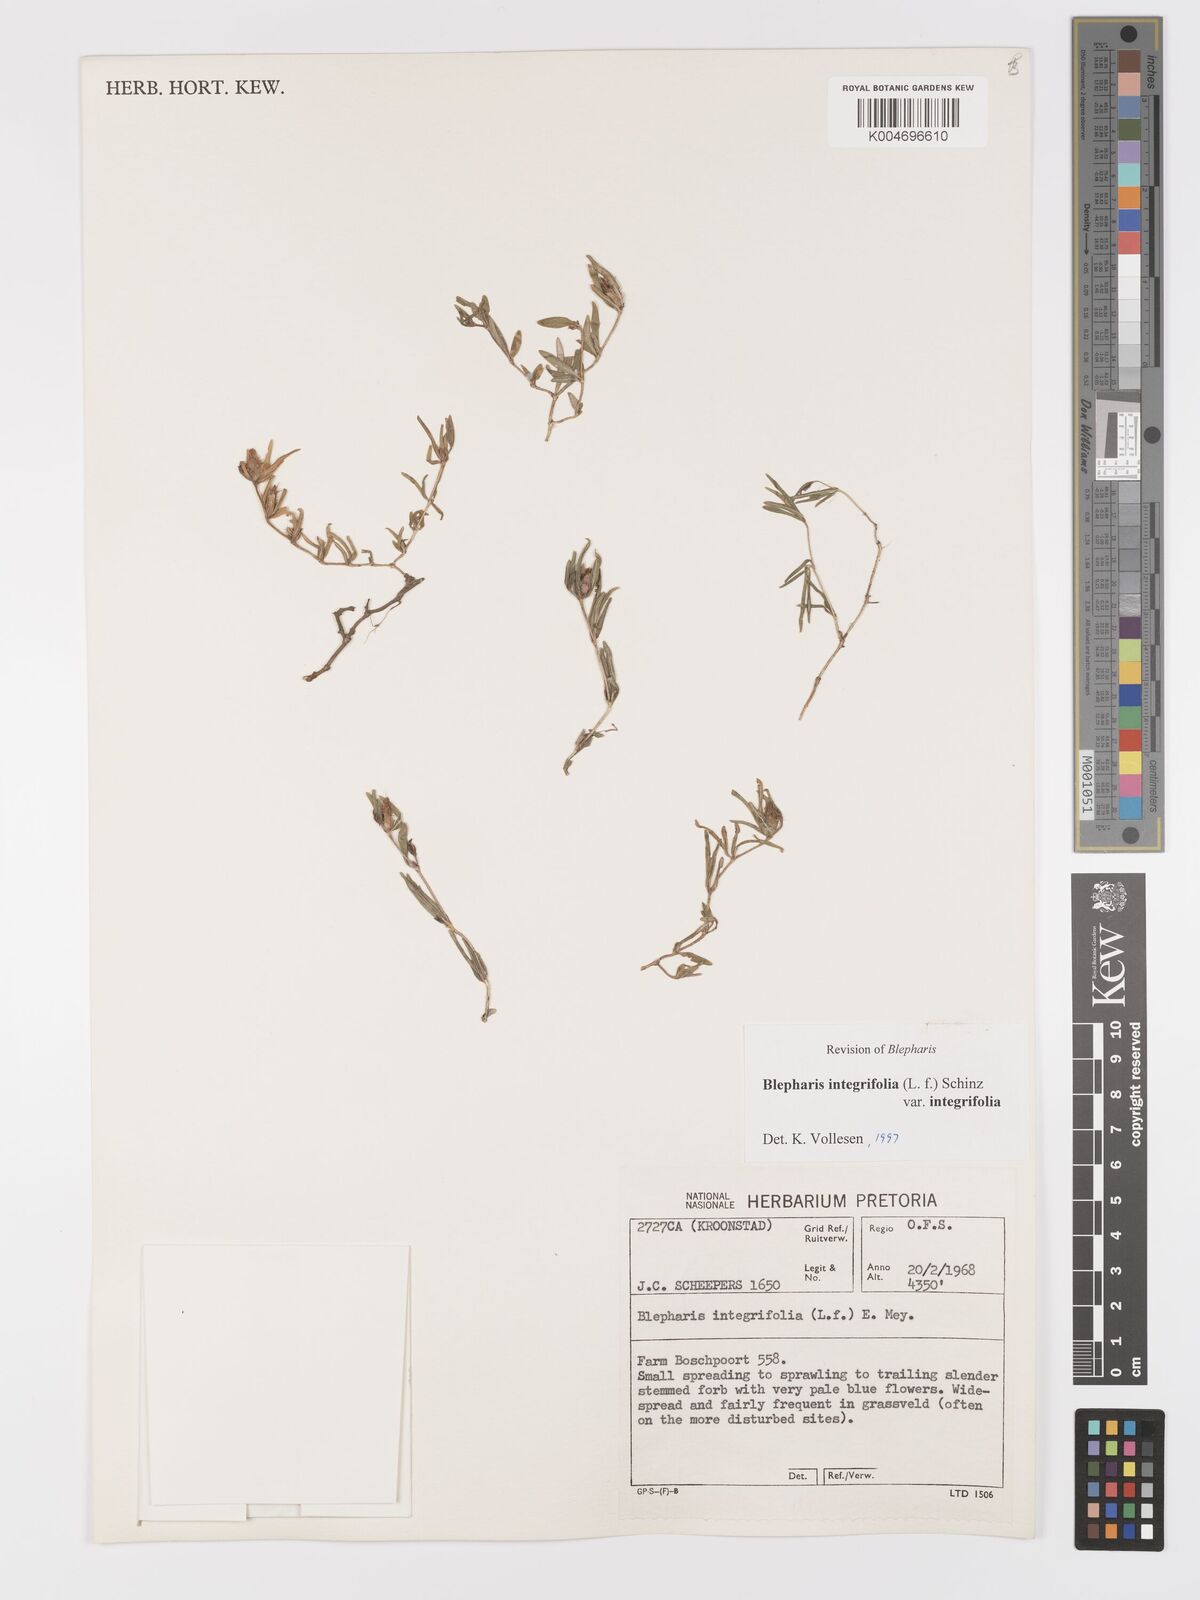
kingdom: Plantae
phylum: Tracheophyta
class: Magnoliopsida
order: Lamiales
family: Acanthaceae
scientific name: Acanthaceae
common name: Acanthaceae
